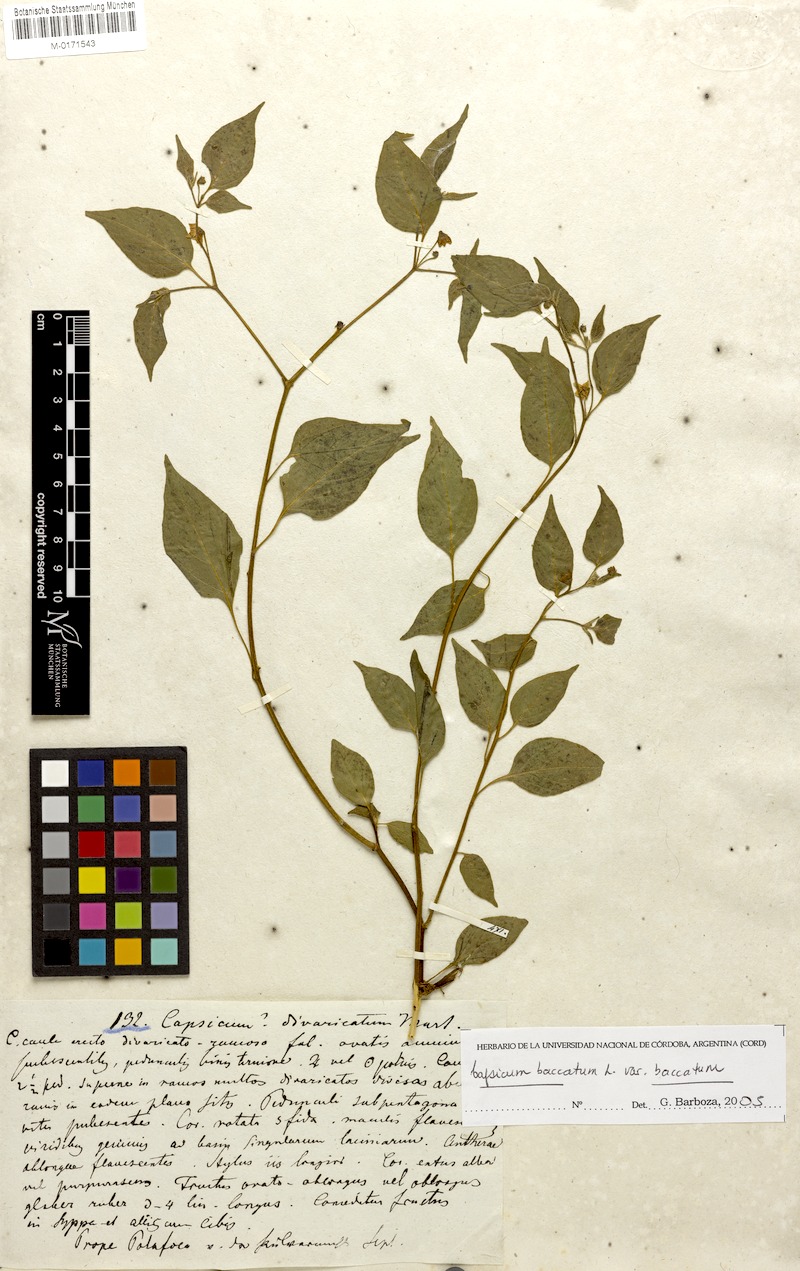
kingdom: Plantae
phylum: Tracheophyta
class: Magnoliopsida
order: Solanales
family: Solanaceae
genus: Capsicum
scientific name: Capsicum baccatum
